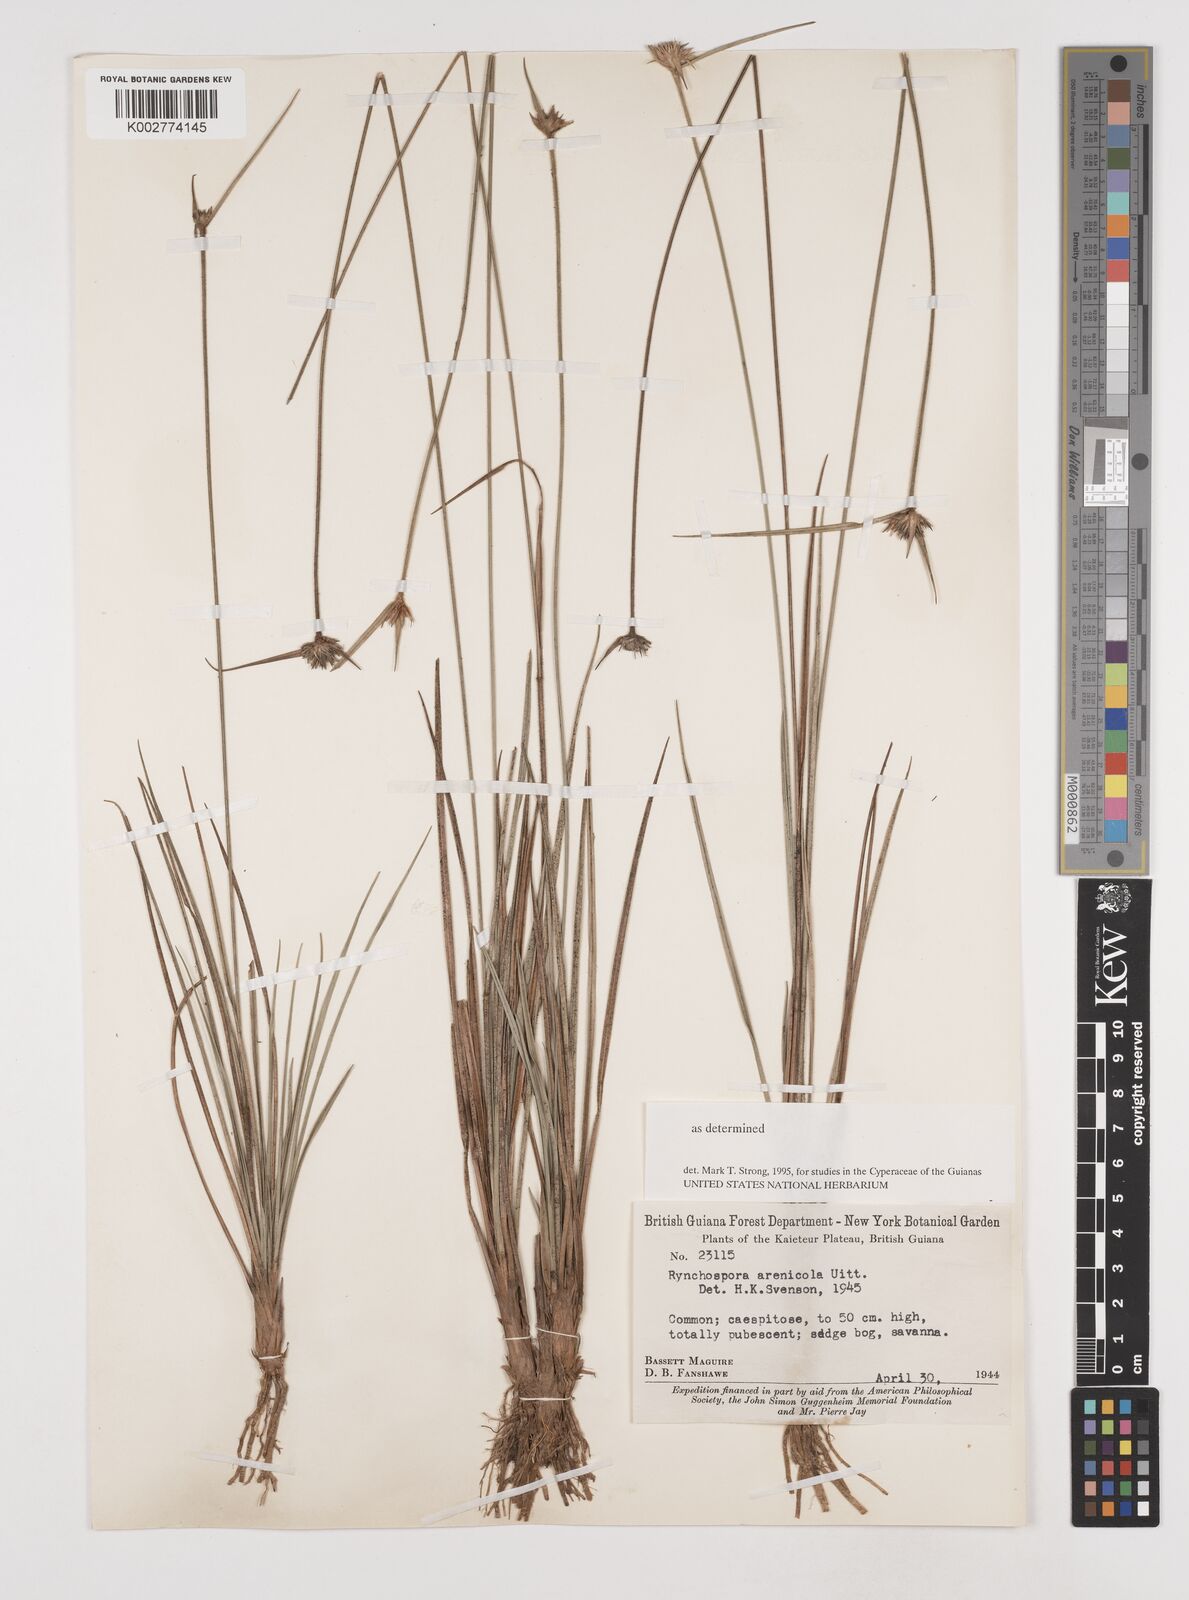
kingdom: Plantae
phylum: Tracheophyta
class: Liliopsida
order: Poales
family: Cyperaceae
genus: Rhynchospora
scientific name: Rhynchospora arenicola
